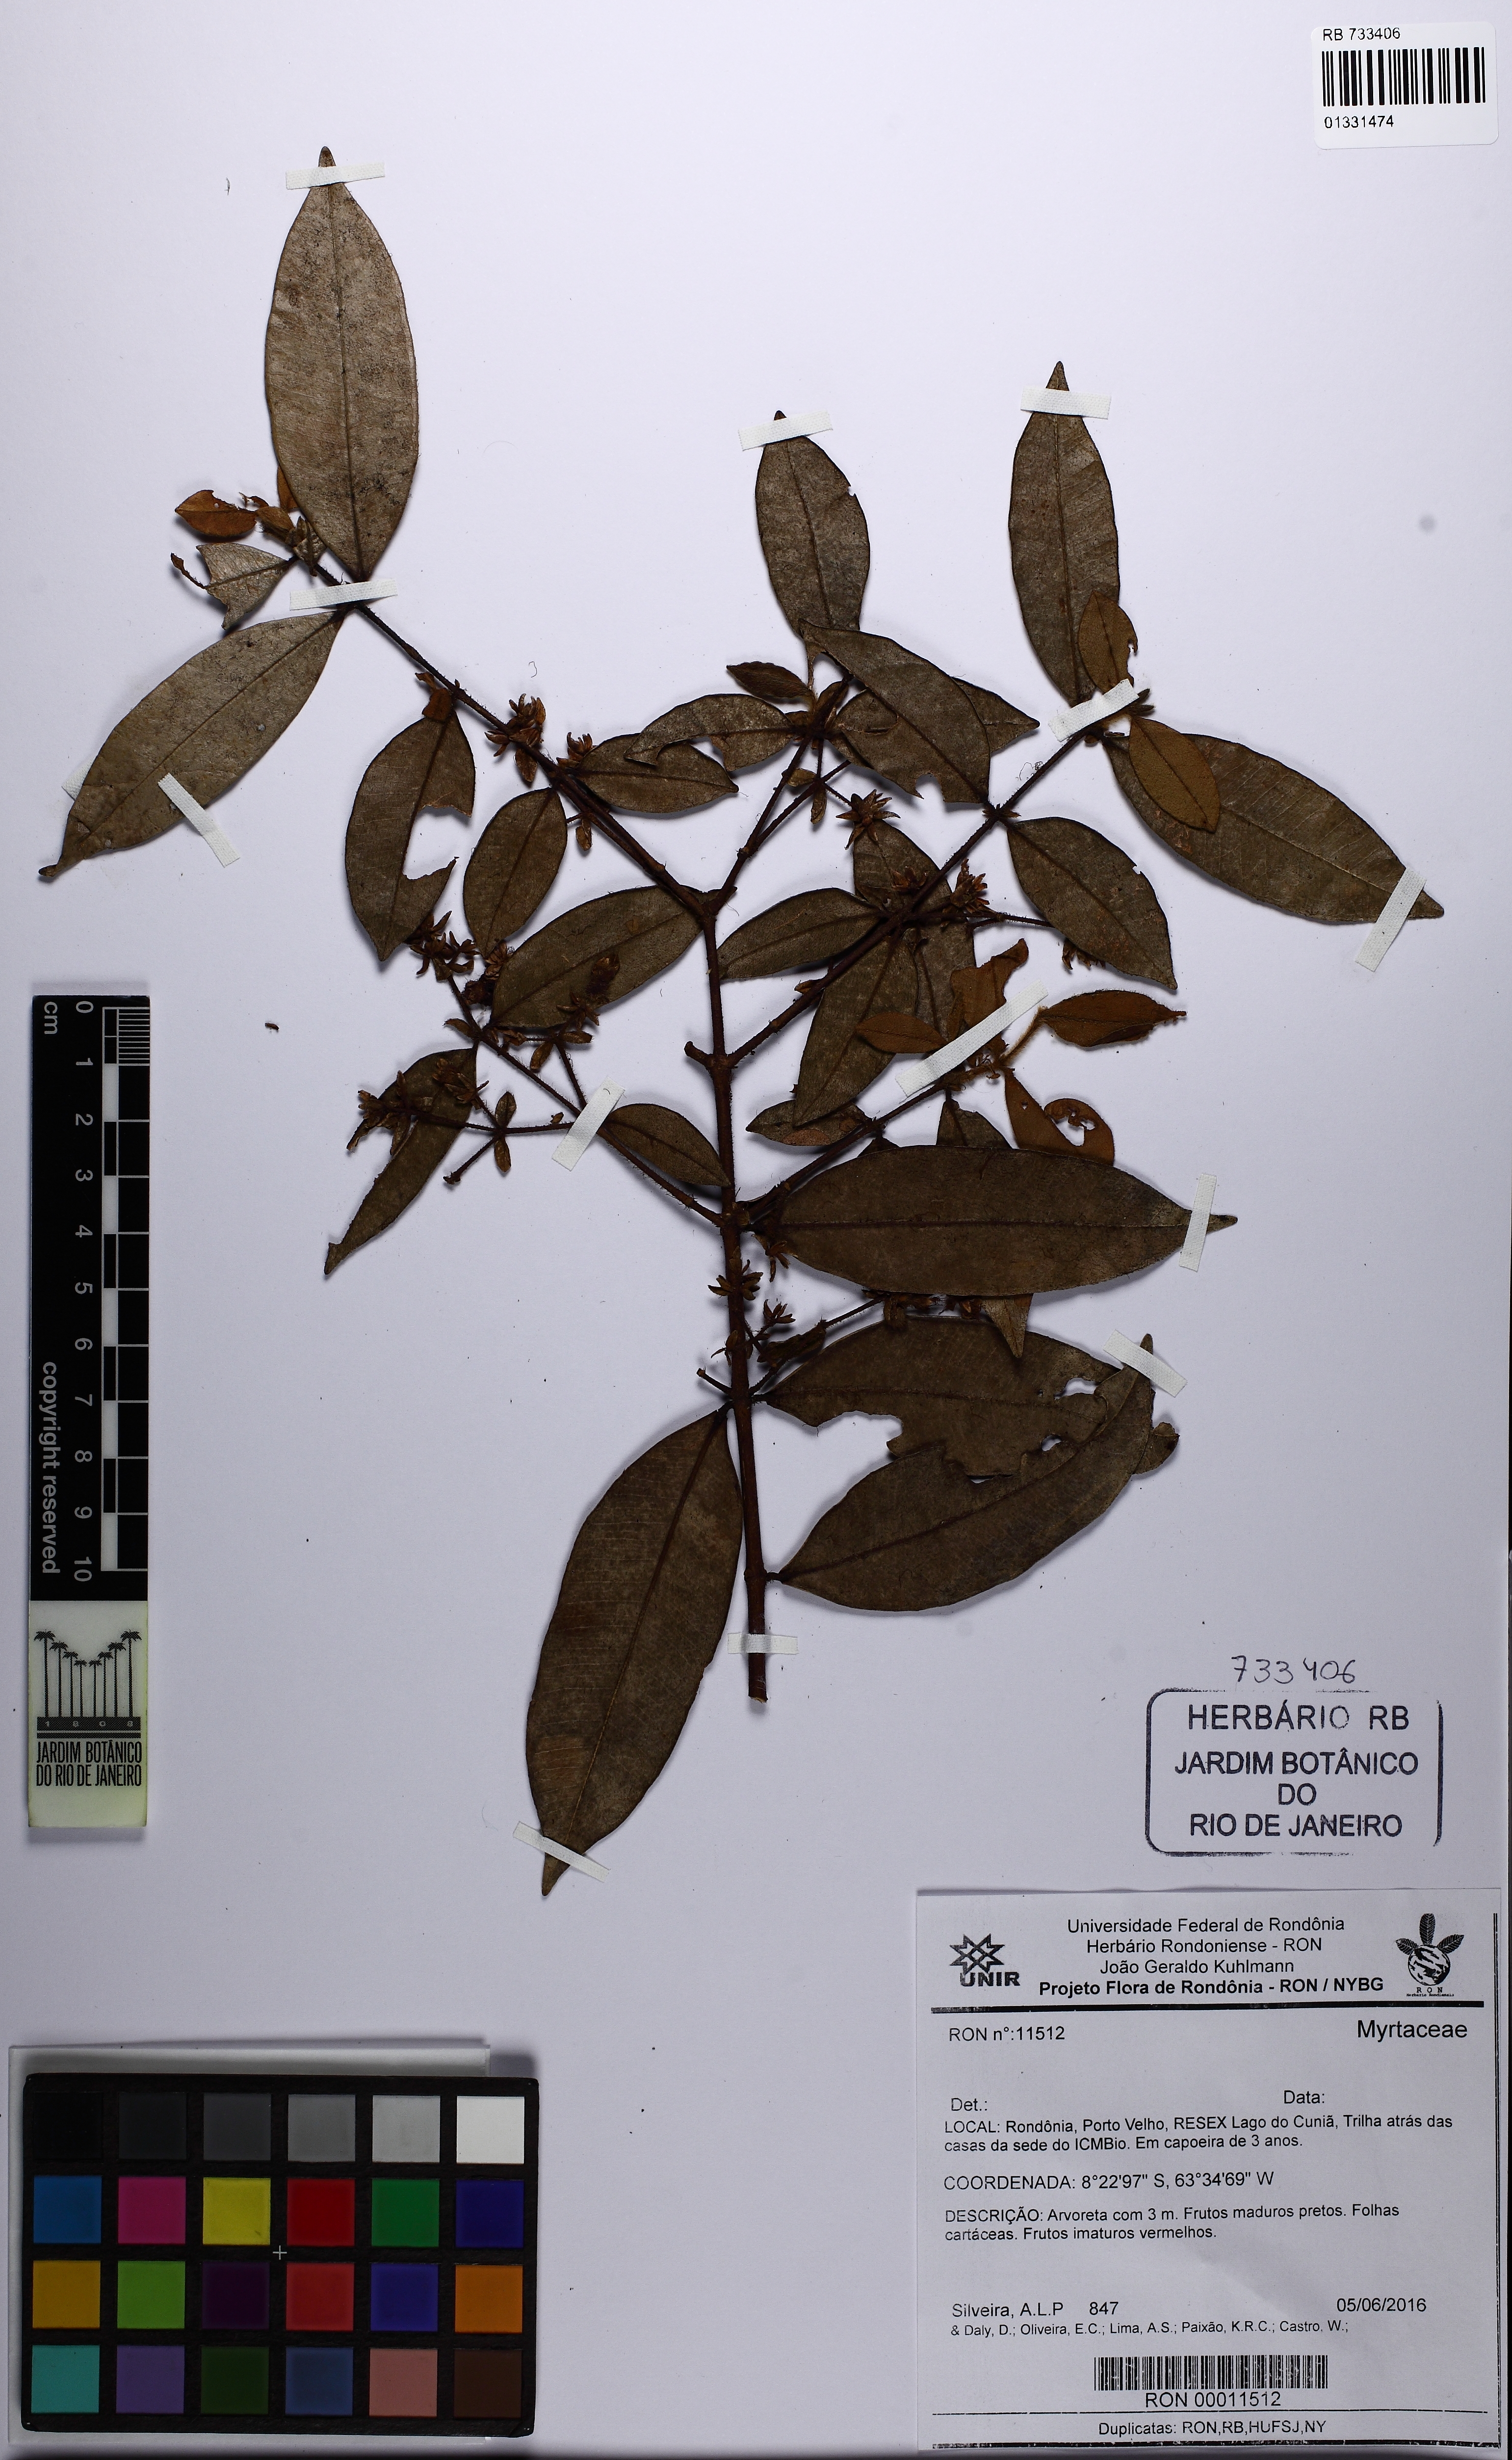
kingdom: Plantae
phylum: Tracheophyta
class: Magnoliopsida
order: Myrtales
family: Myrtaceae
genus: Myrcia
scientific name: Myrcia didrichseniana
